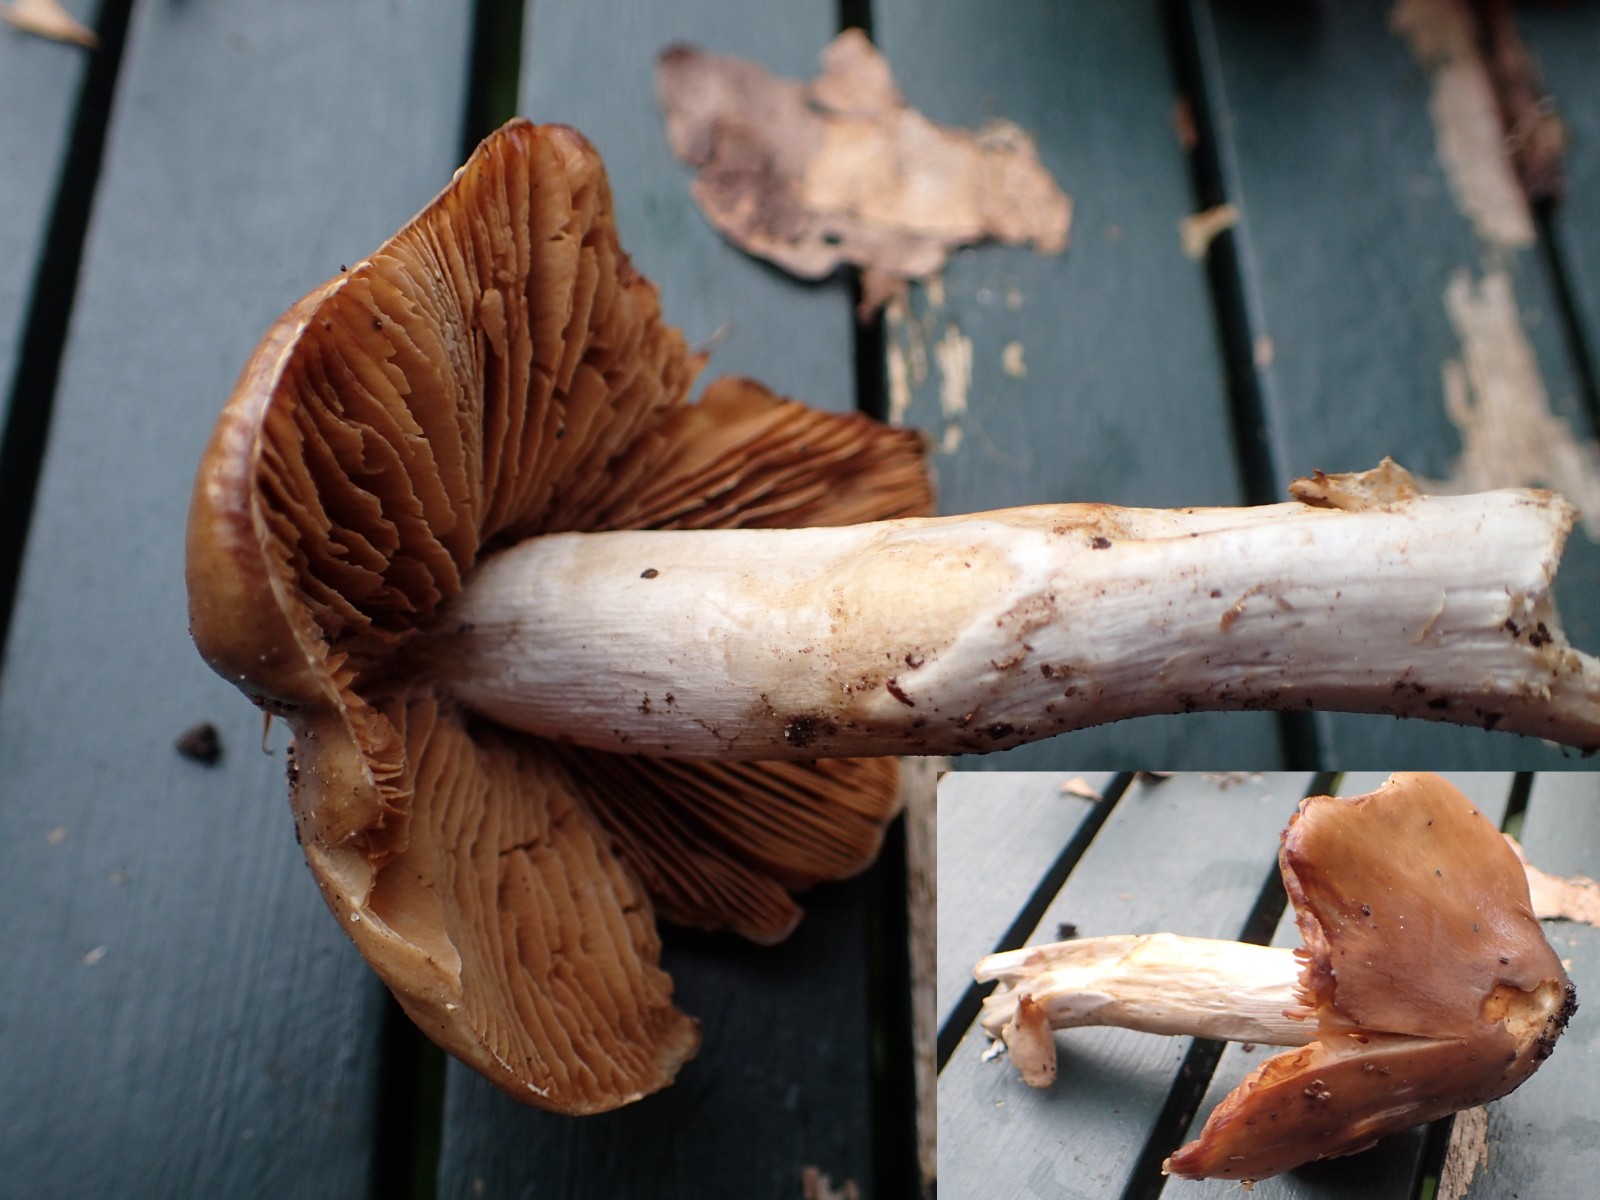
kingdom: Fungi
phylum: Basidiomycota
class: Agaricomycetes
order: Agaricales
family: Cortinariaceae
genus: Cortinarius
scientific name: Cortinarius elatior
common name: høj slørhat
